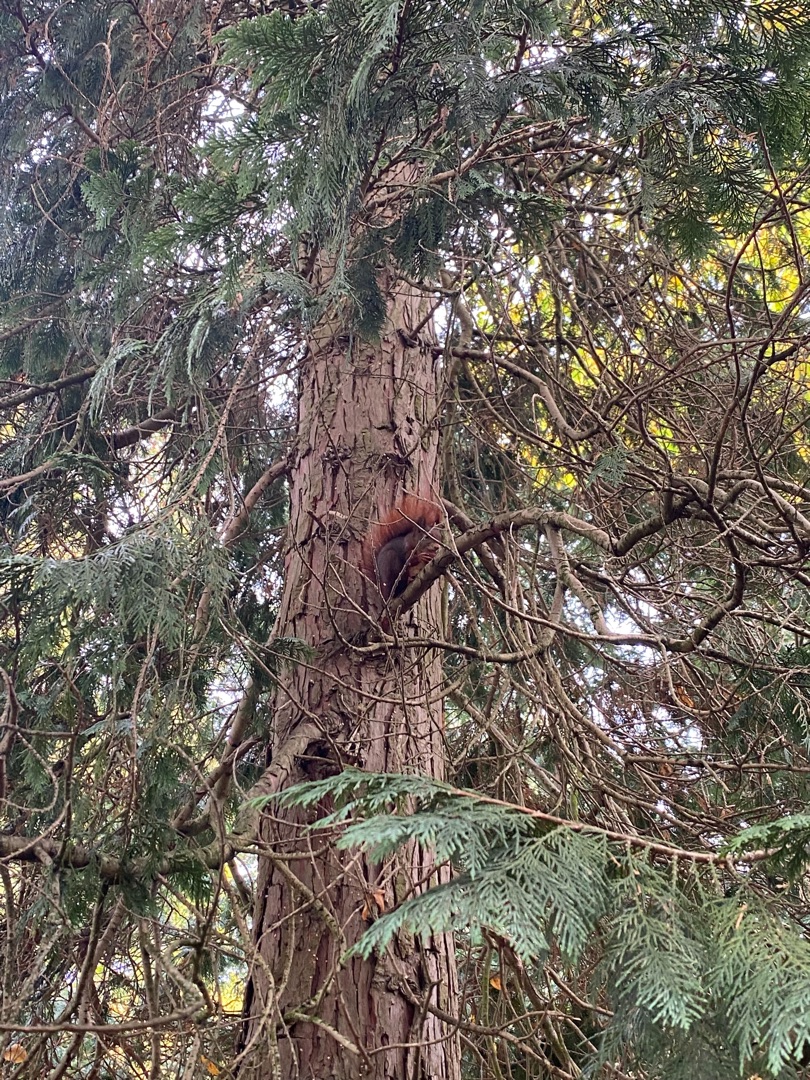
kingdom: Animalia
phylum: Chordata
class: Mammalia
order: Rodentia
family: Sciuridae
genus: Sciurus
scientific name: Sciurus vulgaris
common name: Egern
